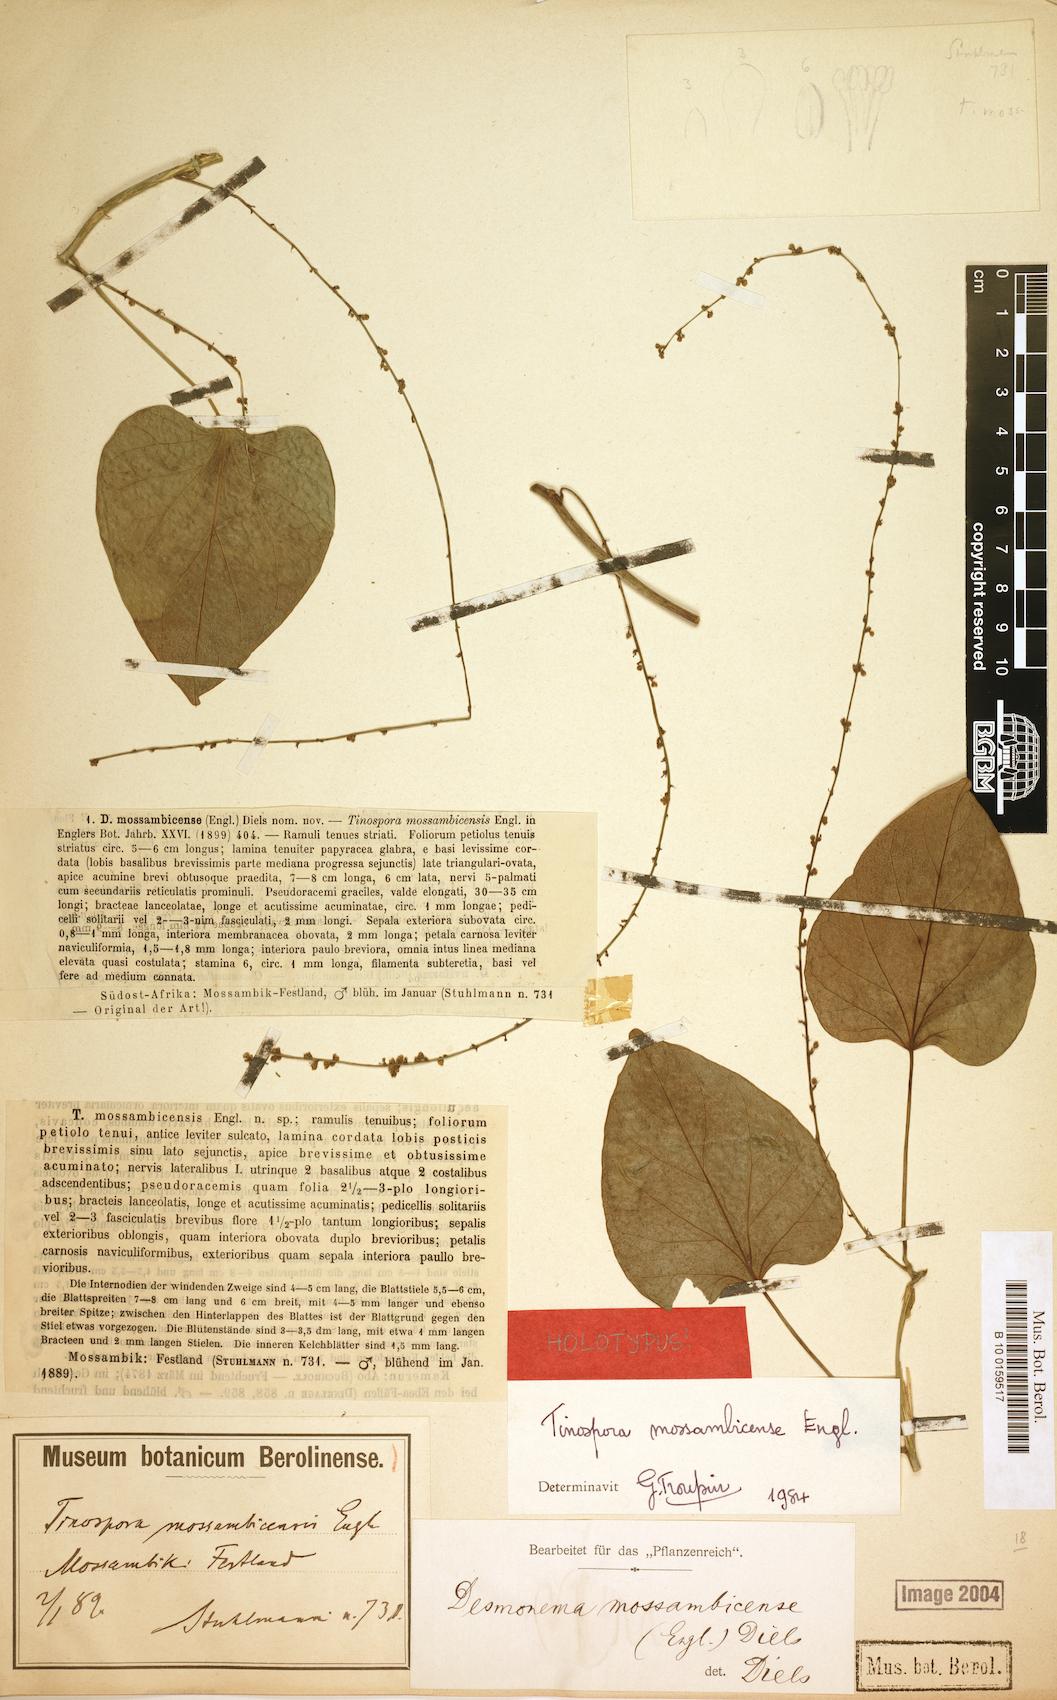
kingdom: Plantae
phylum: Tracheophyta
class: Magnoliopsida
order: Ranunculales
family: Menispermaceae
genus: Tinospora
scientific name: Tinospora mossambicensis
